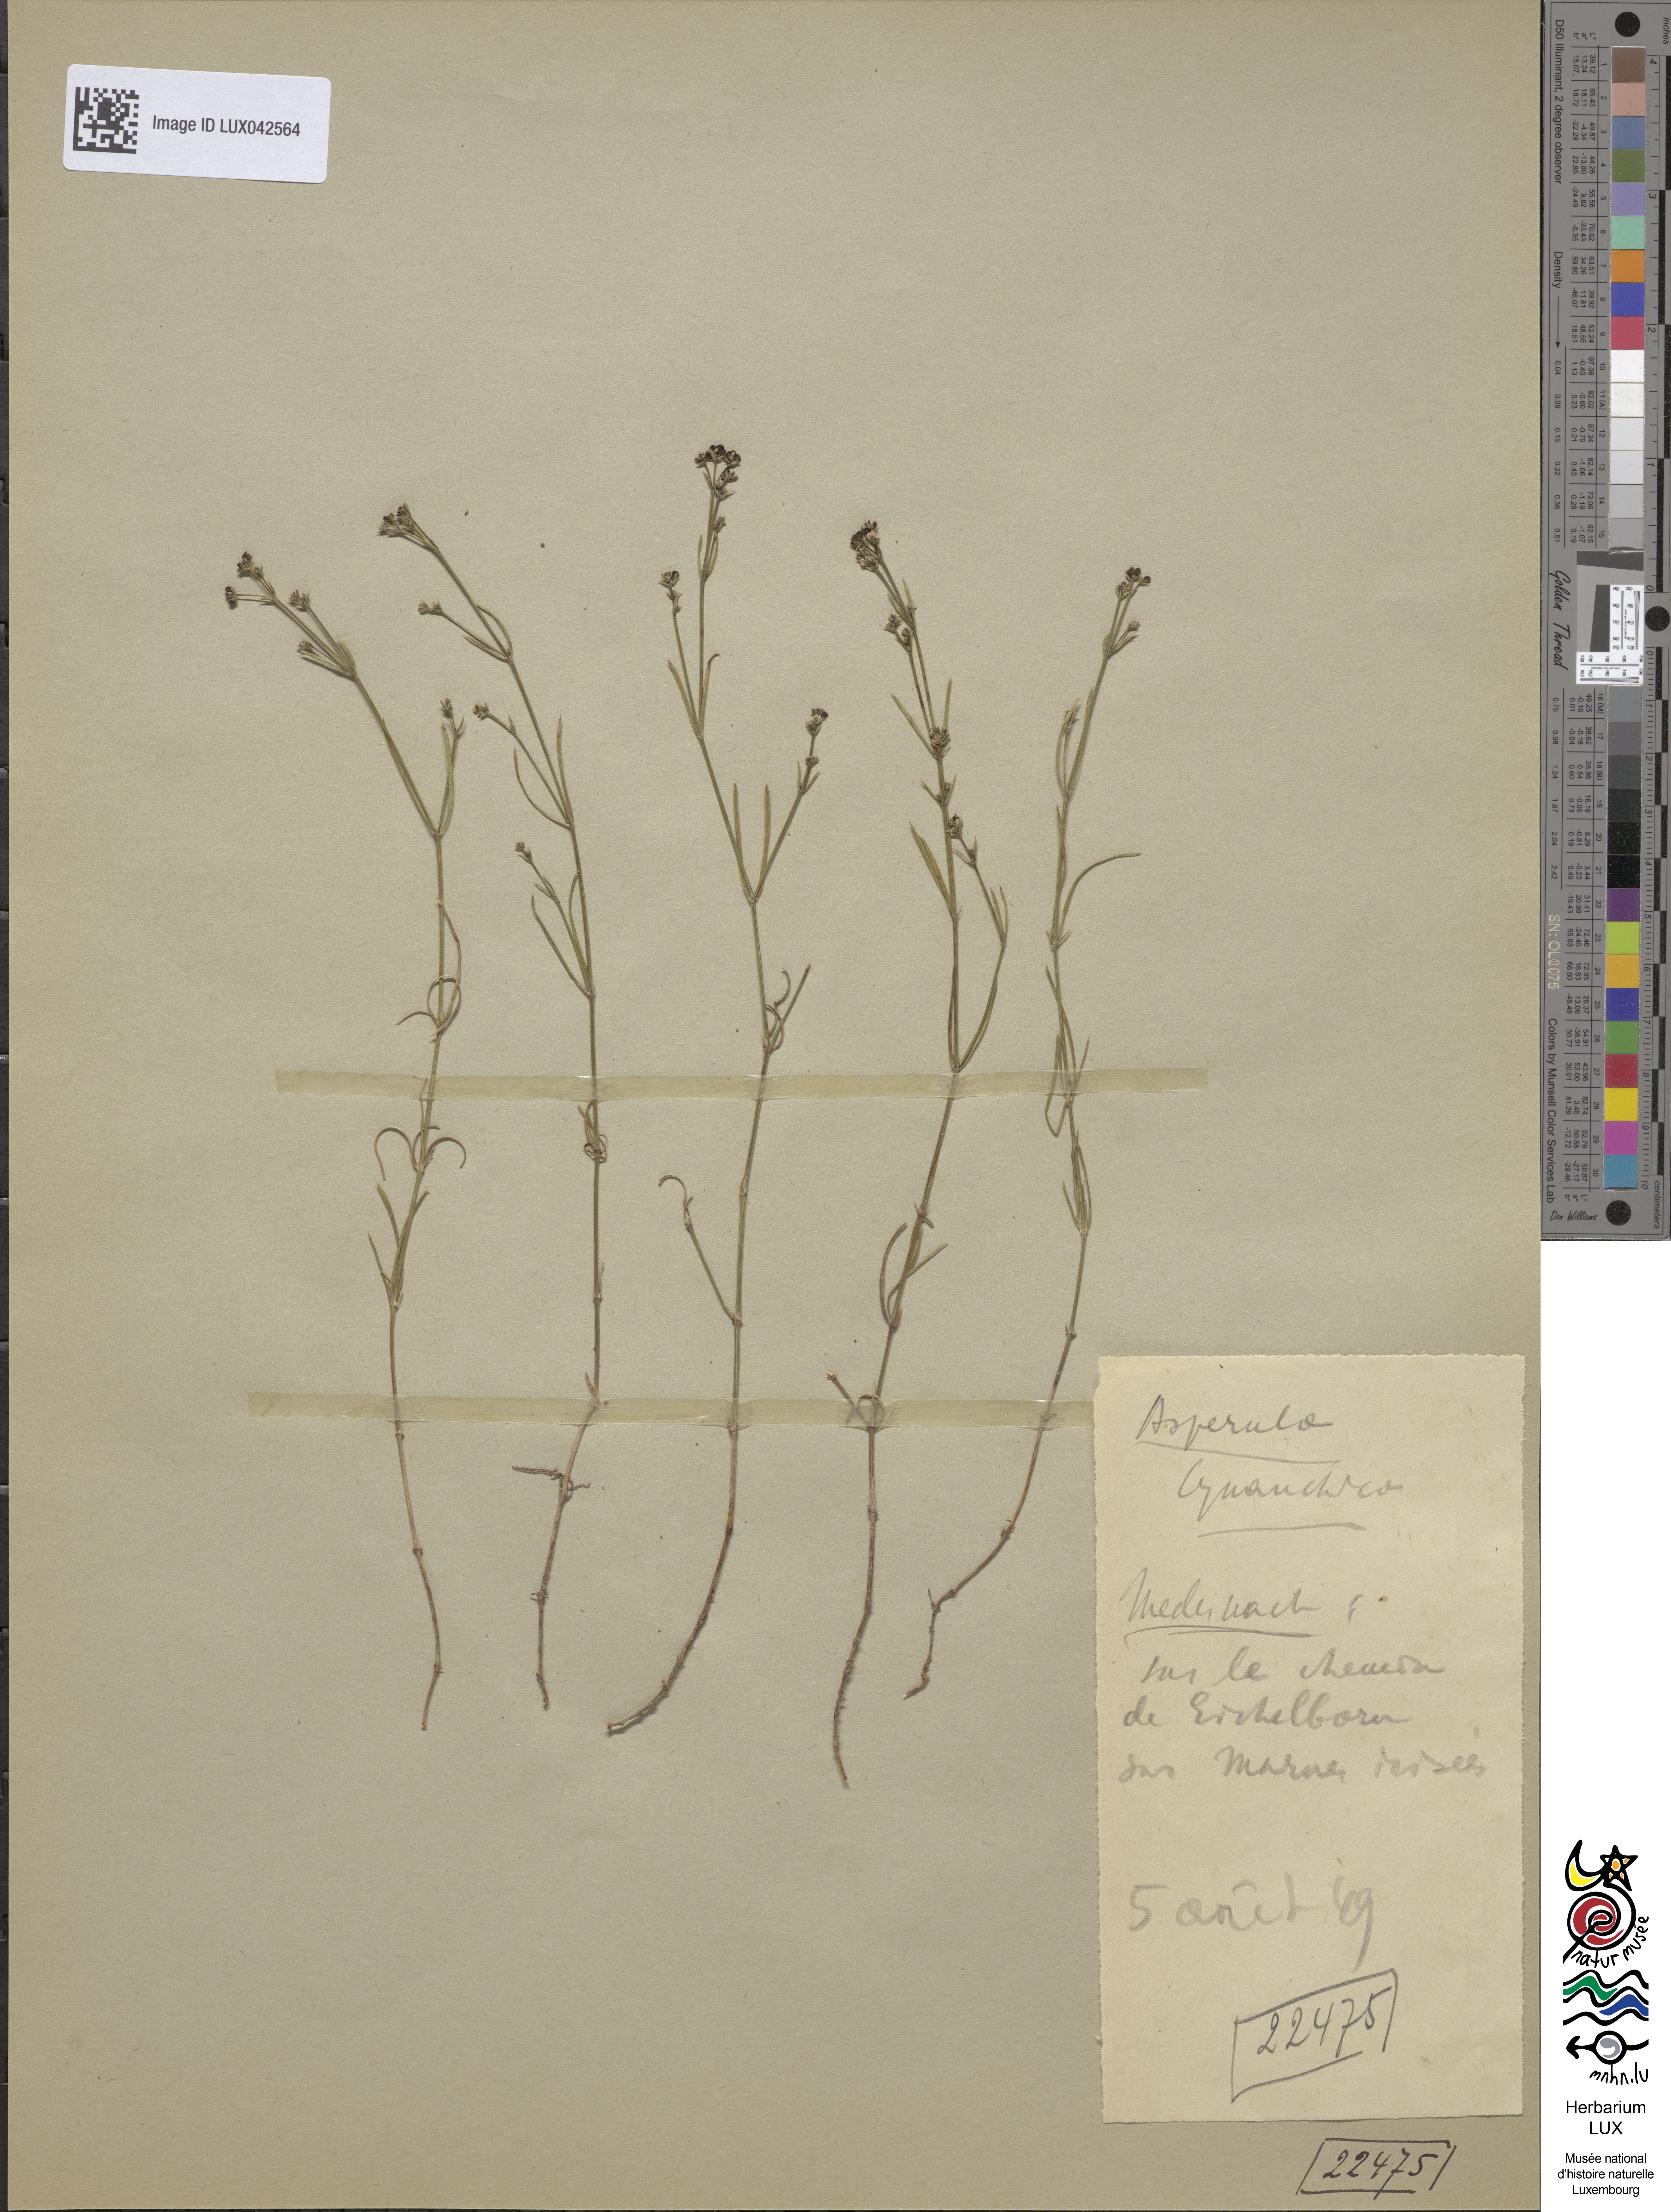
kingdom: Plantae
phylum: Tracheophyta
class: Magnoliopsida
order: Gentianales
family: Rubiaceae
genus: Cynanchica
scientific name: Cynanchica pyrenaica
